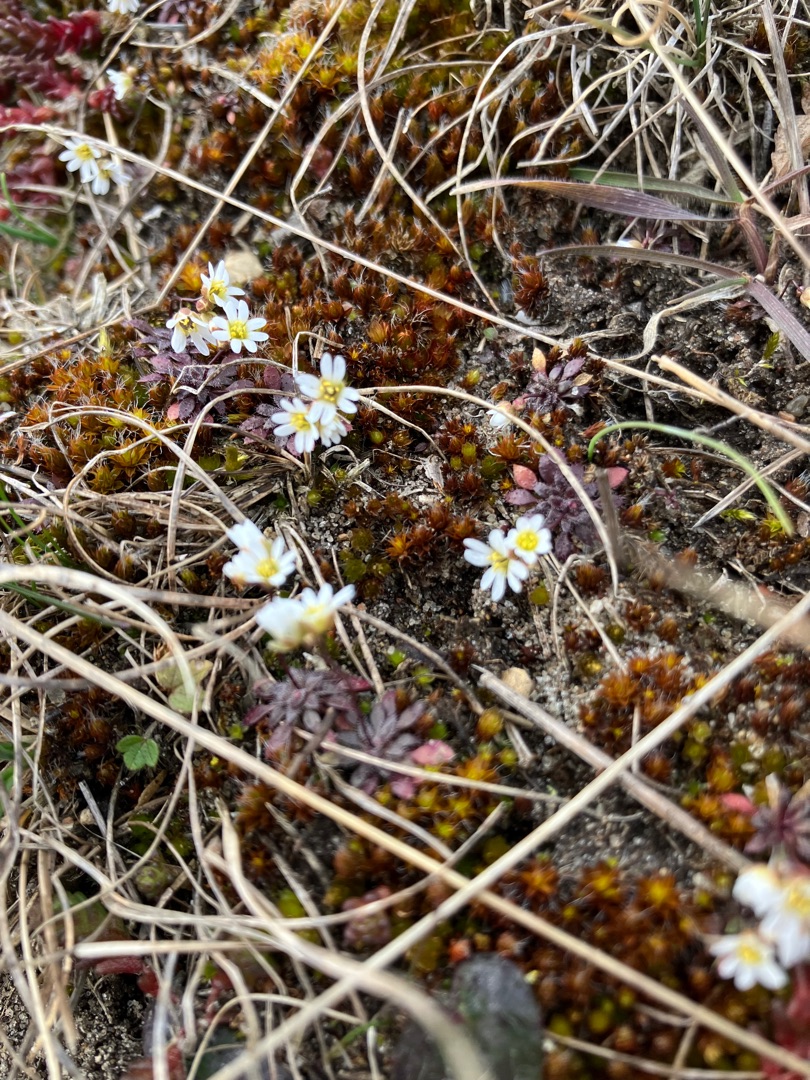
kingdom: Plantae
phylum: Tracheophyta
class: Magnoliopsida
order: Brassicales
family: Brassicaceae
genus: Draba
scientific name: Draba verna
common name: Vår-gæslingeblomst
